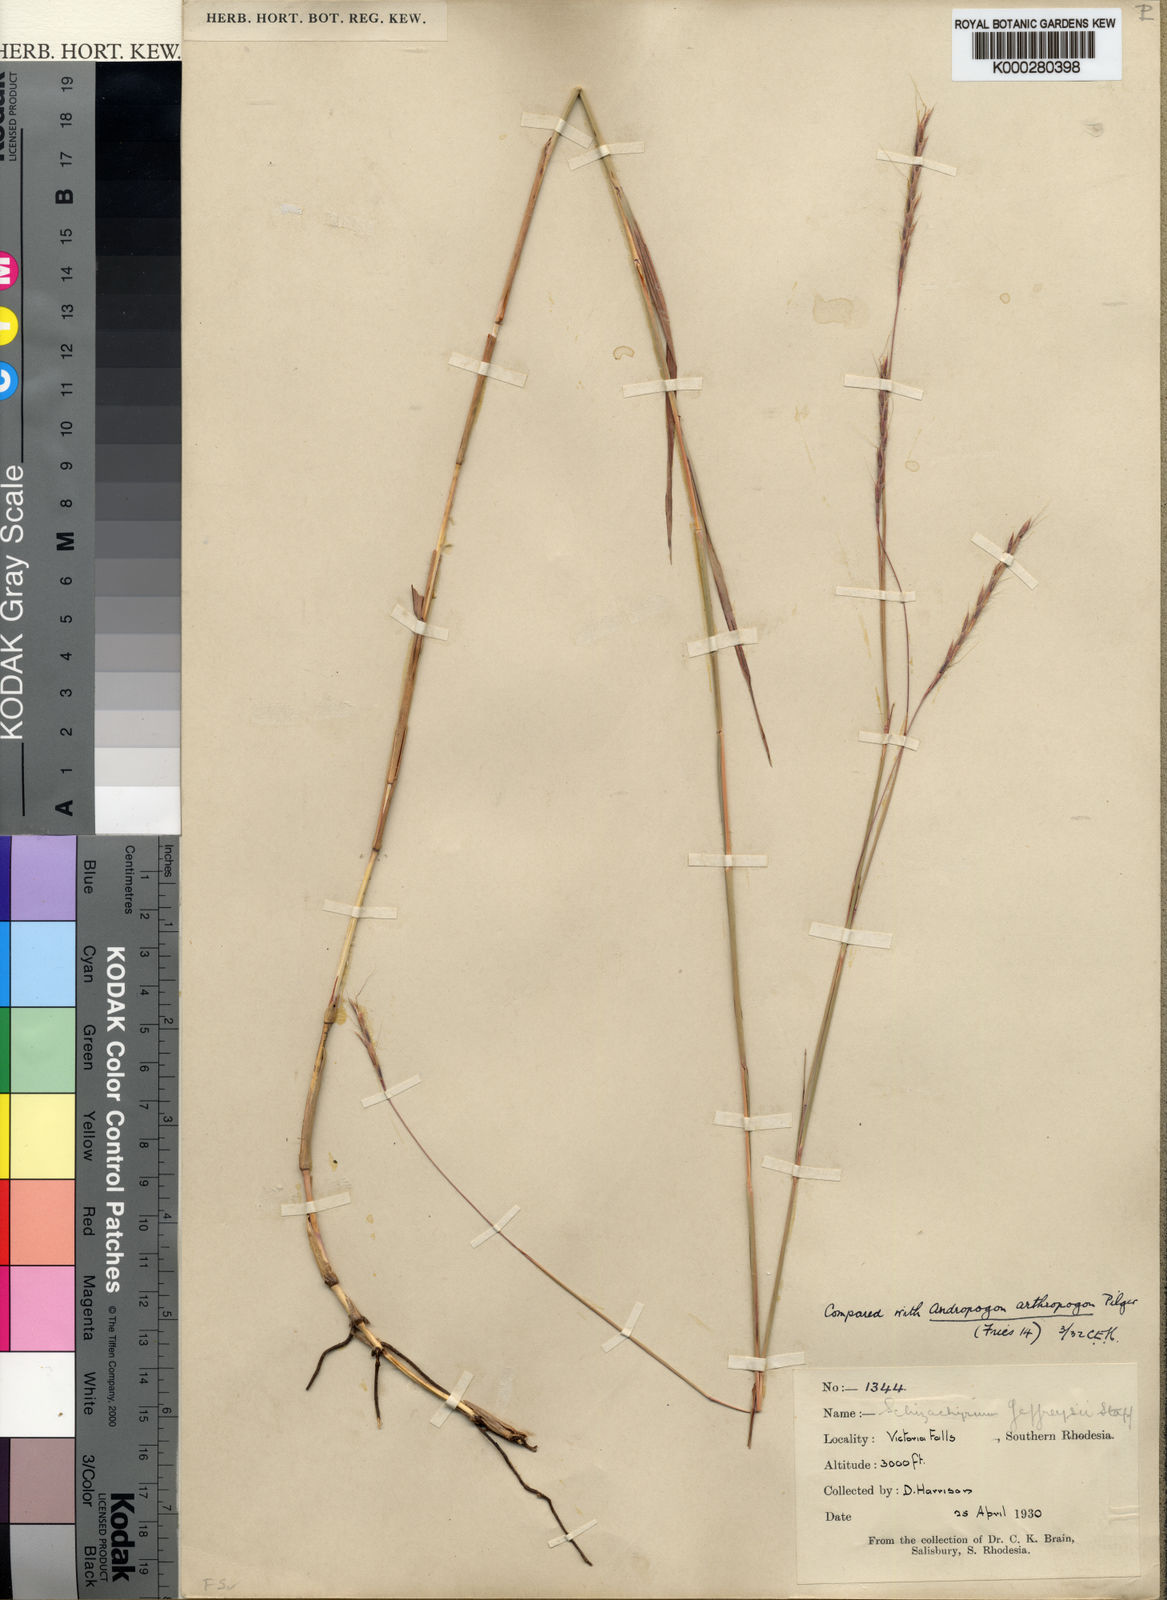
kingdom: Plantae
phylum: Tracheophyta
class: Liliopsida
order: Poales
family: Poaceae
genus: Schizachyrium
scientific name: Schizachyrium jeffreysii
